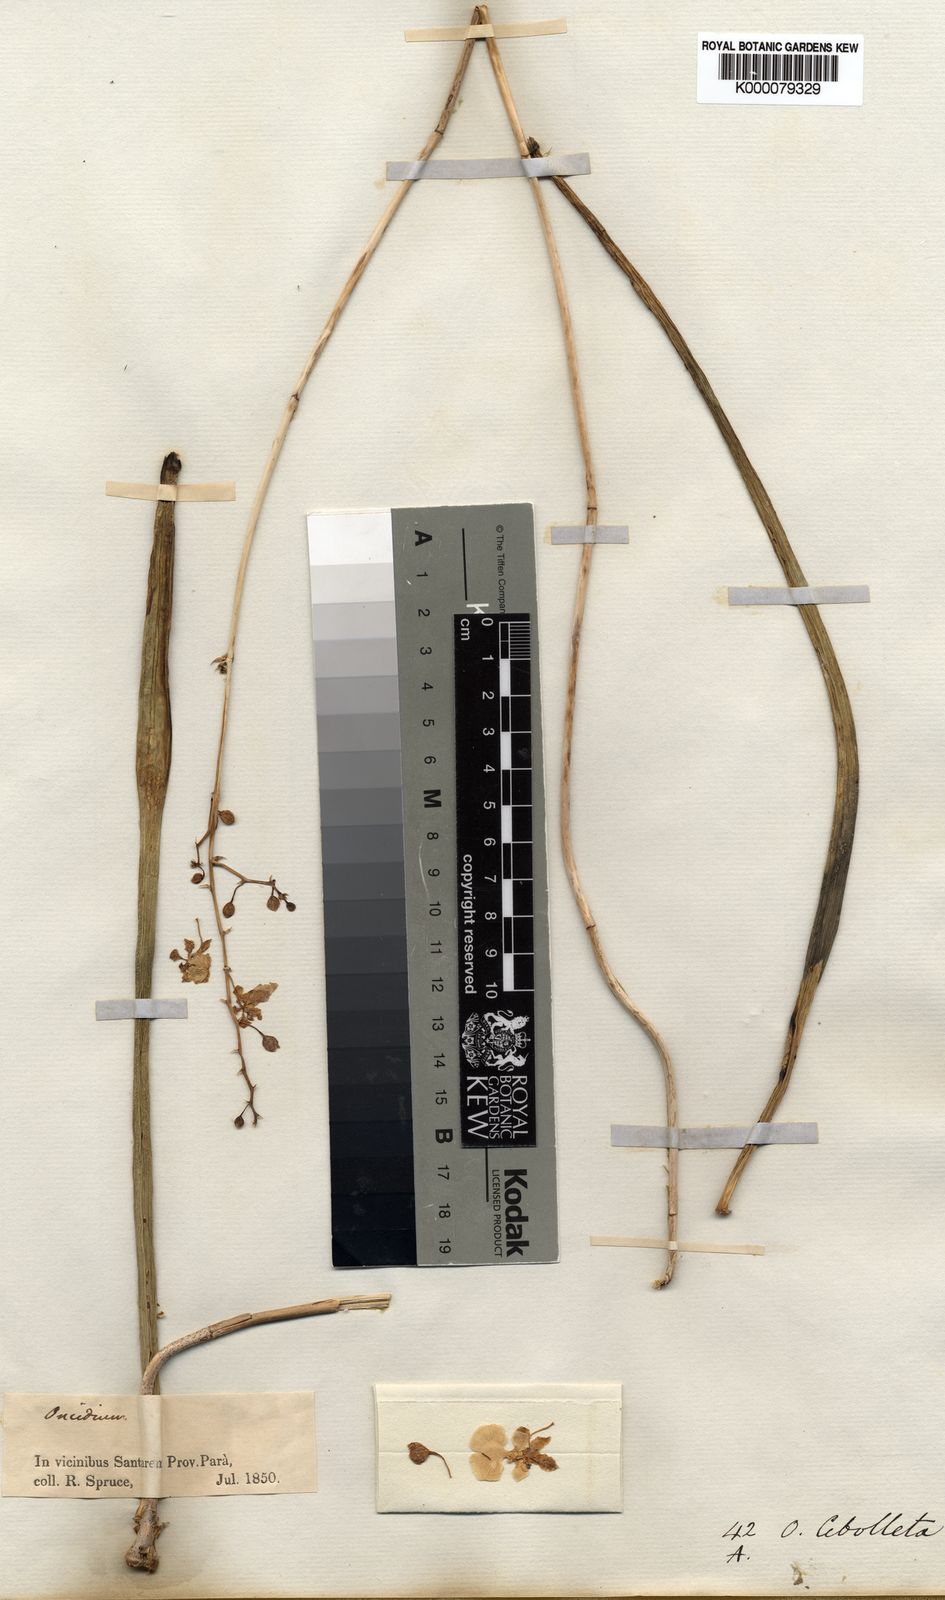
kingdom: Plantae
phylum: Tracheophyta
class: Liliopsida
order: Asparagales
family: Orchidaceae
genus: Trichocentrum
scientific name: Trichocentrum sprucei
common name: Rat-tail orchid
